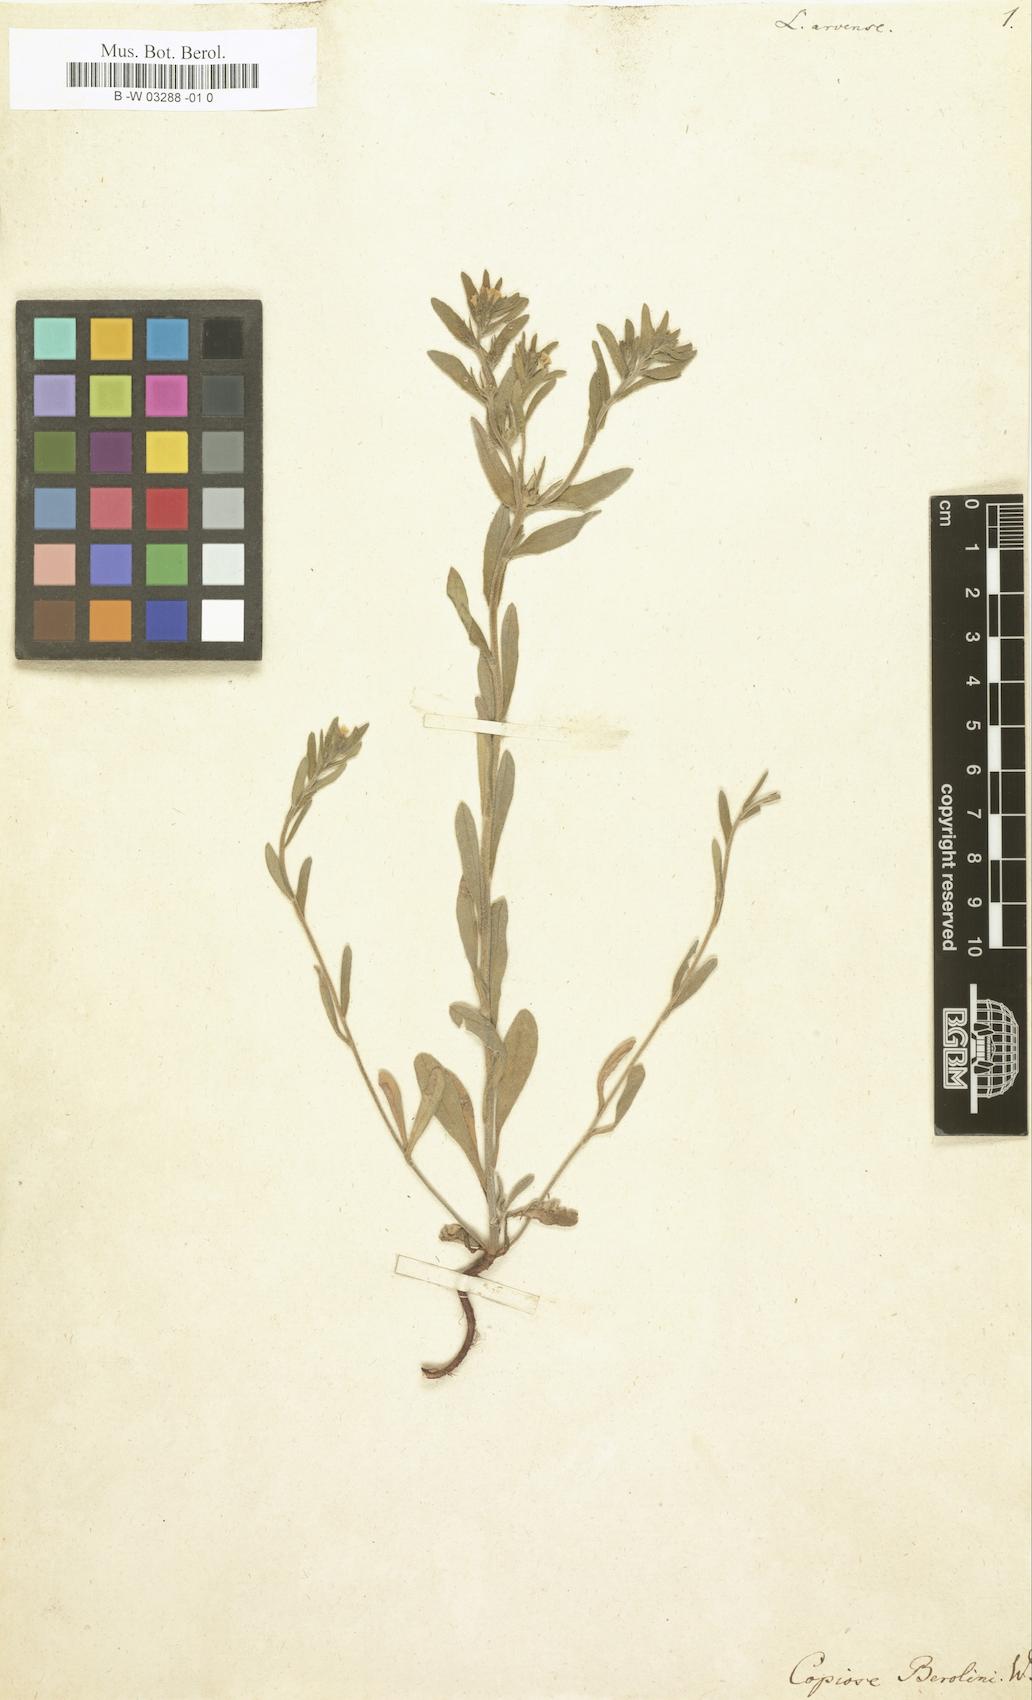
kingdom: Plantae
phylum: Tracheophyta
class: Magnoliopsida
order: Boraginales
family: Boraginaceae
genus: Buglossoides
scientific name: Buglossoides arvensis
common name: Corn gromwell
